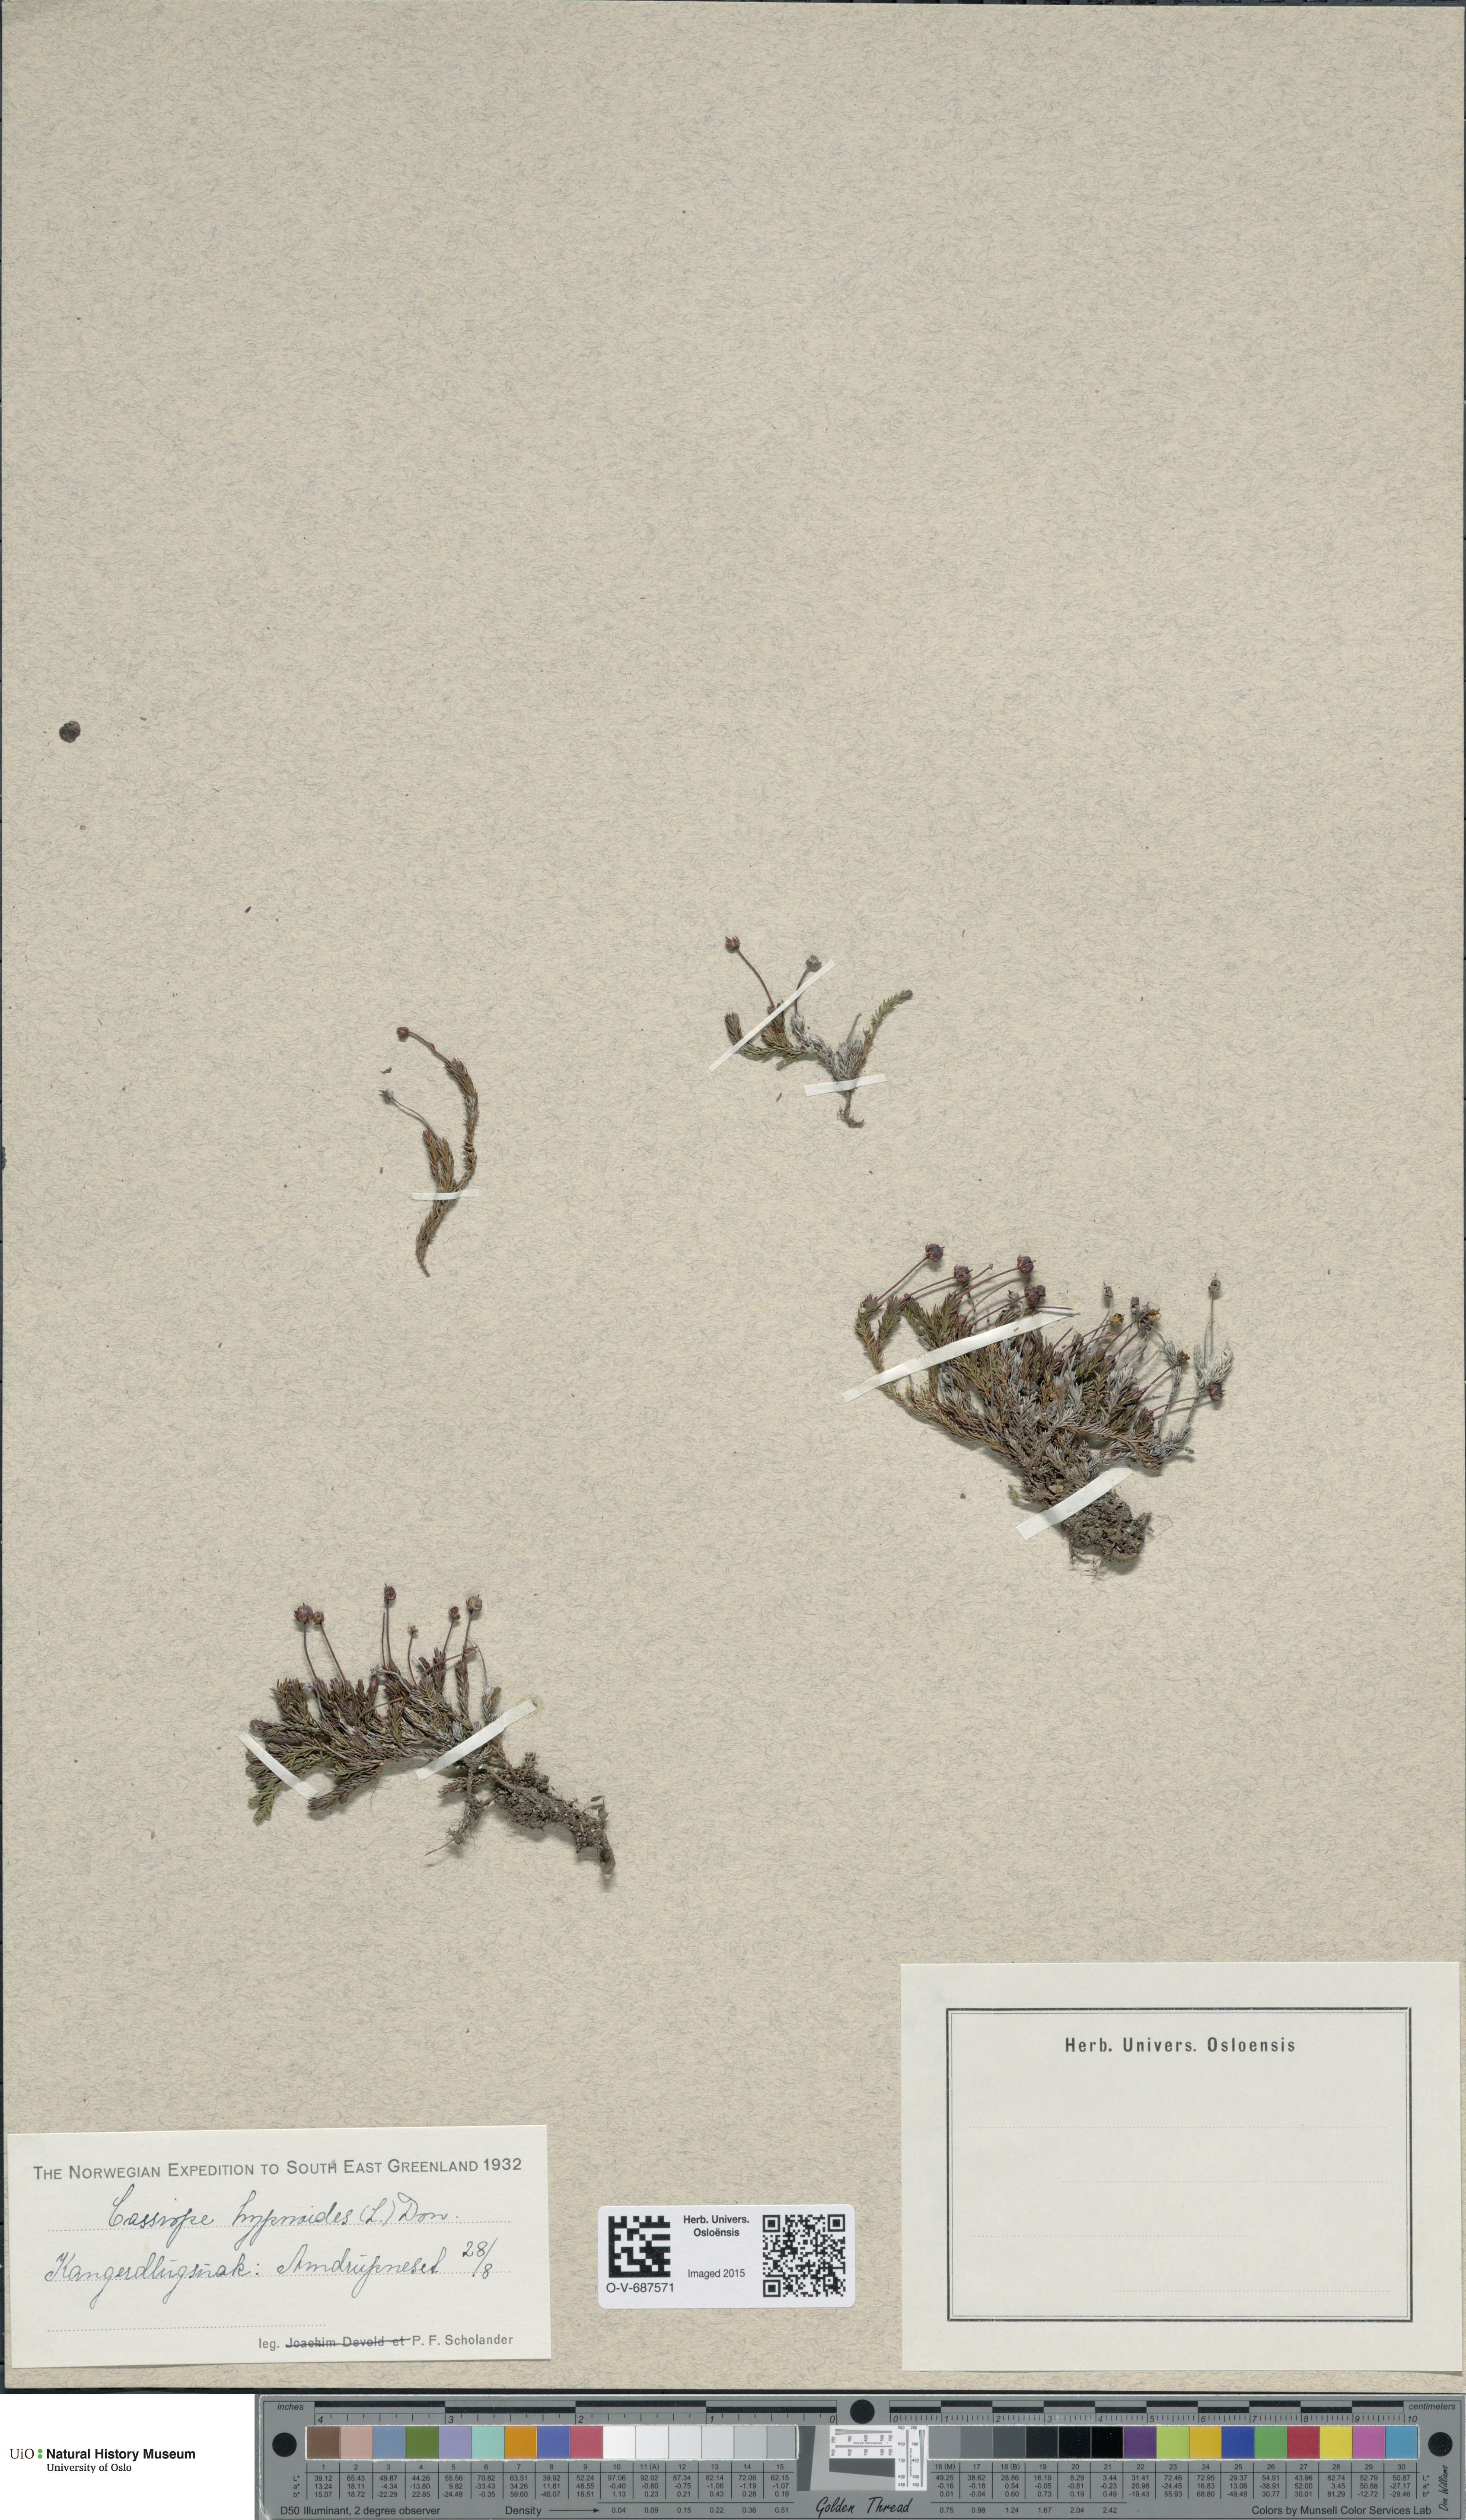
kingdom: Plantae
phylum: Tracheophyta
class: Magnoliopsida
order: Ericales
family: Ericaceae
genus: Harrimanella
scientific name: Harrimanella hypnoides
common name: Moss bell heather
